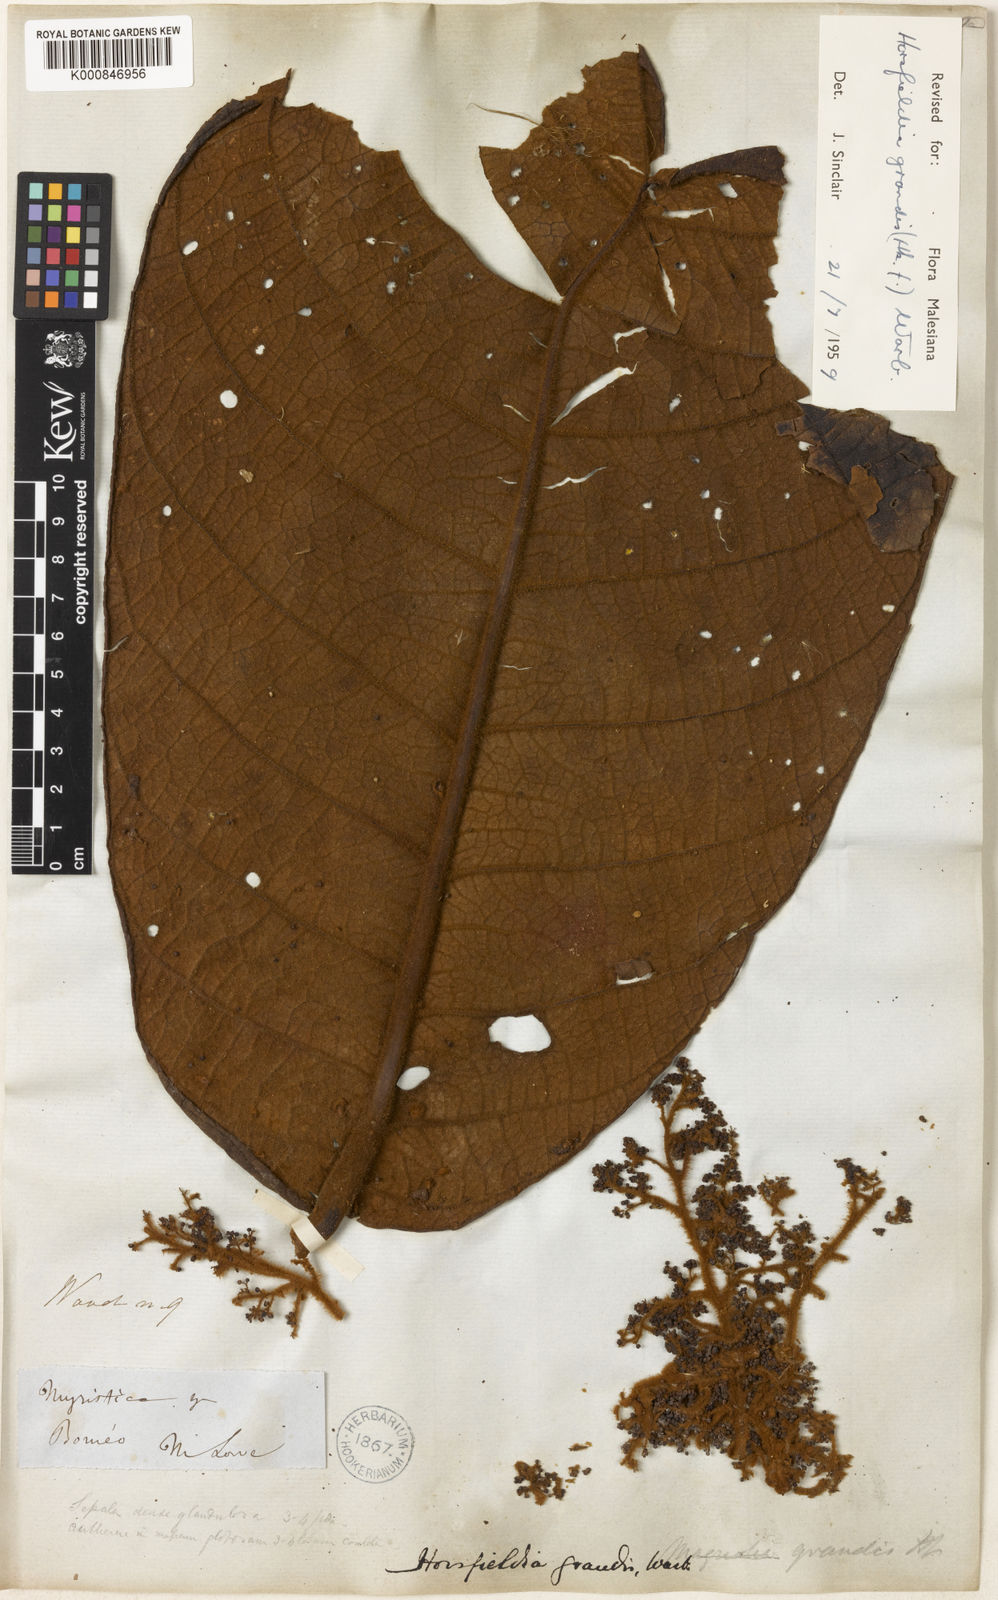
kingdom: Plantae
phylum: Tracheophyta
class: Magnoliopsida
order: Magnoliales
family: Myristicaceae
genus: Horsfieldia
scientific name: Horsfieldia grandis
